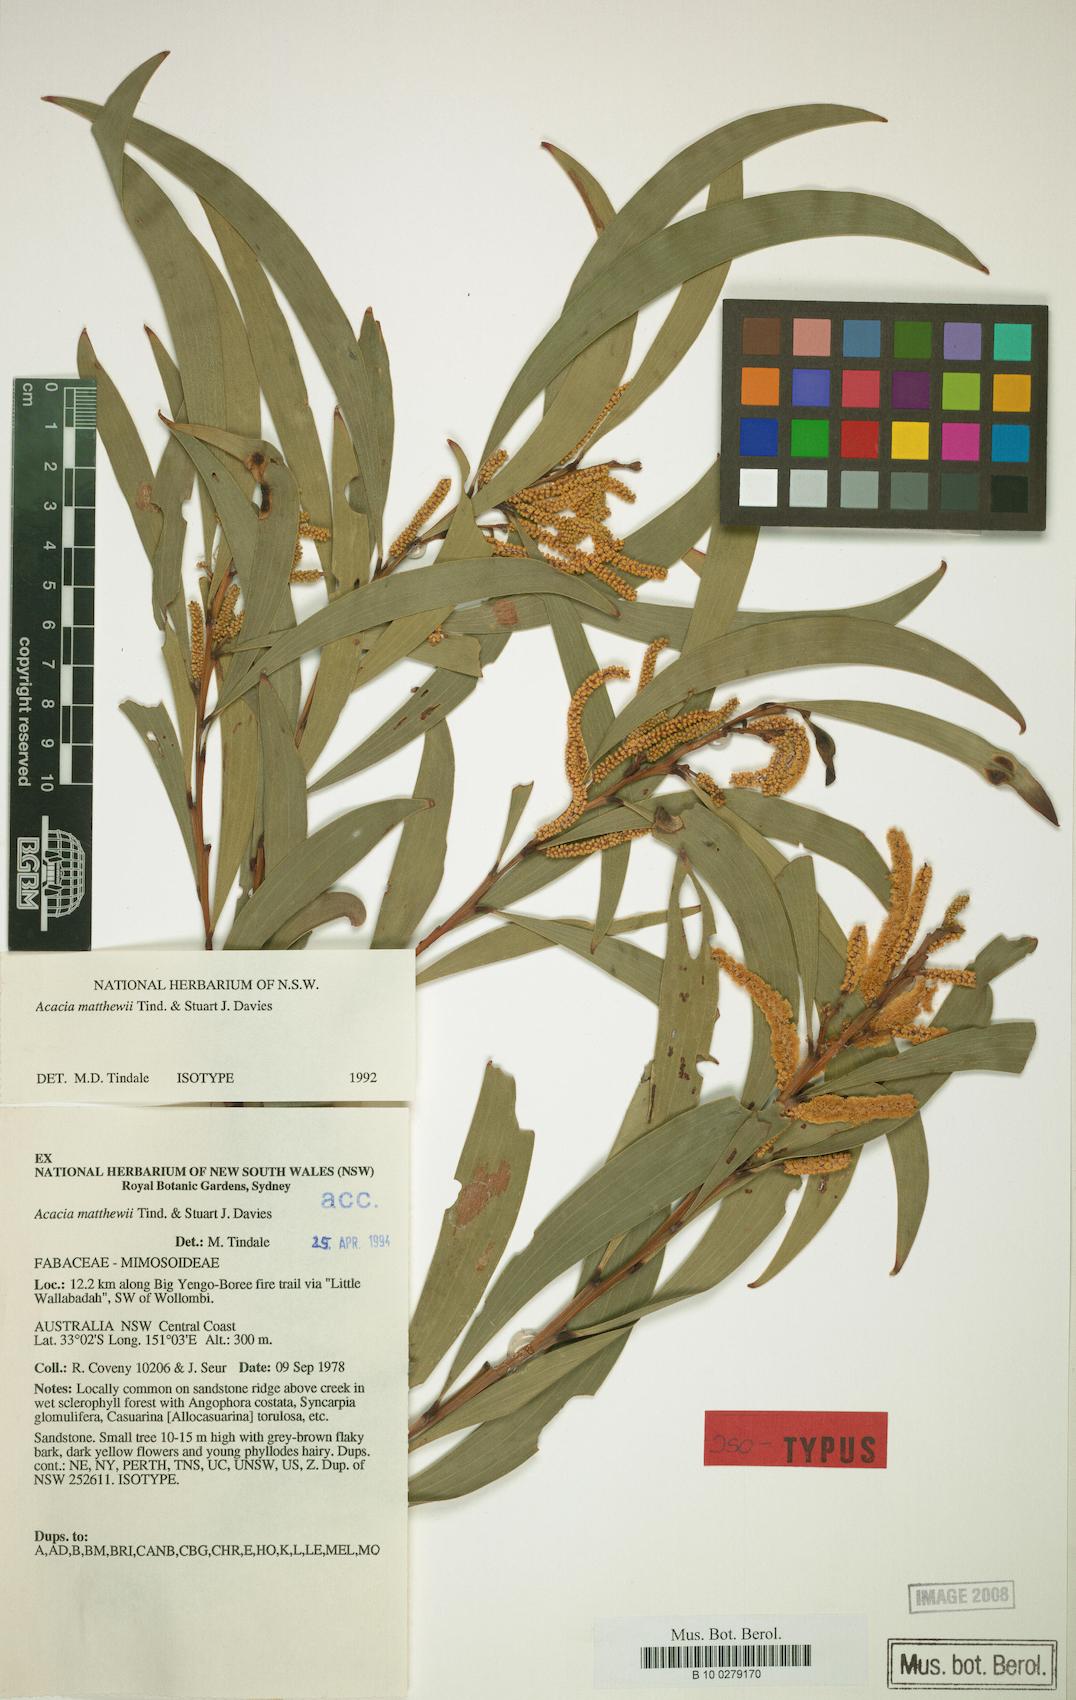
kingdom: Plantae
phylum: Tracheophyta
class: Magnoliopsida
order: Fabales
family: Fabaceae
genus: Acacia
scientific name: Acacia matthewii
